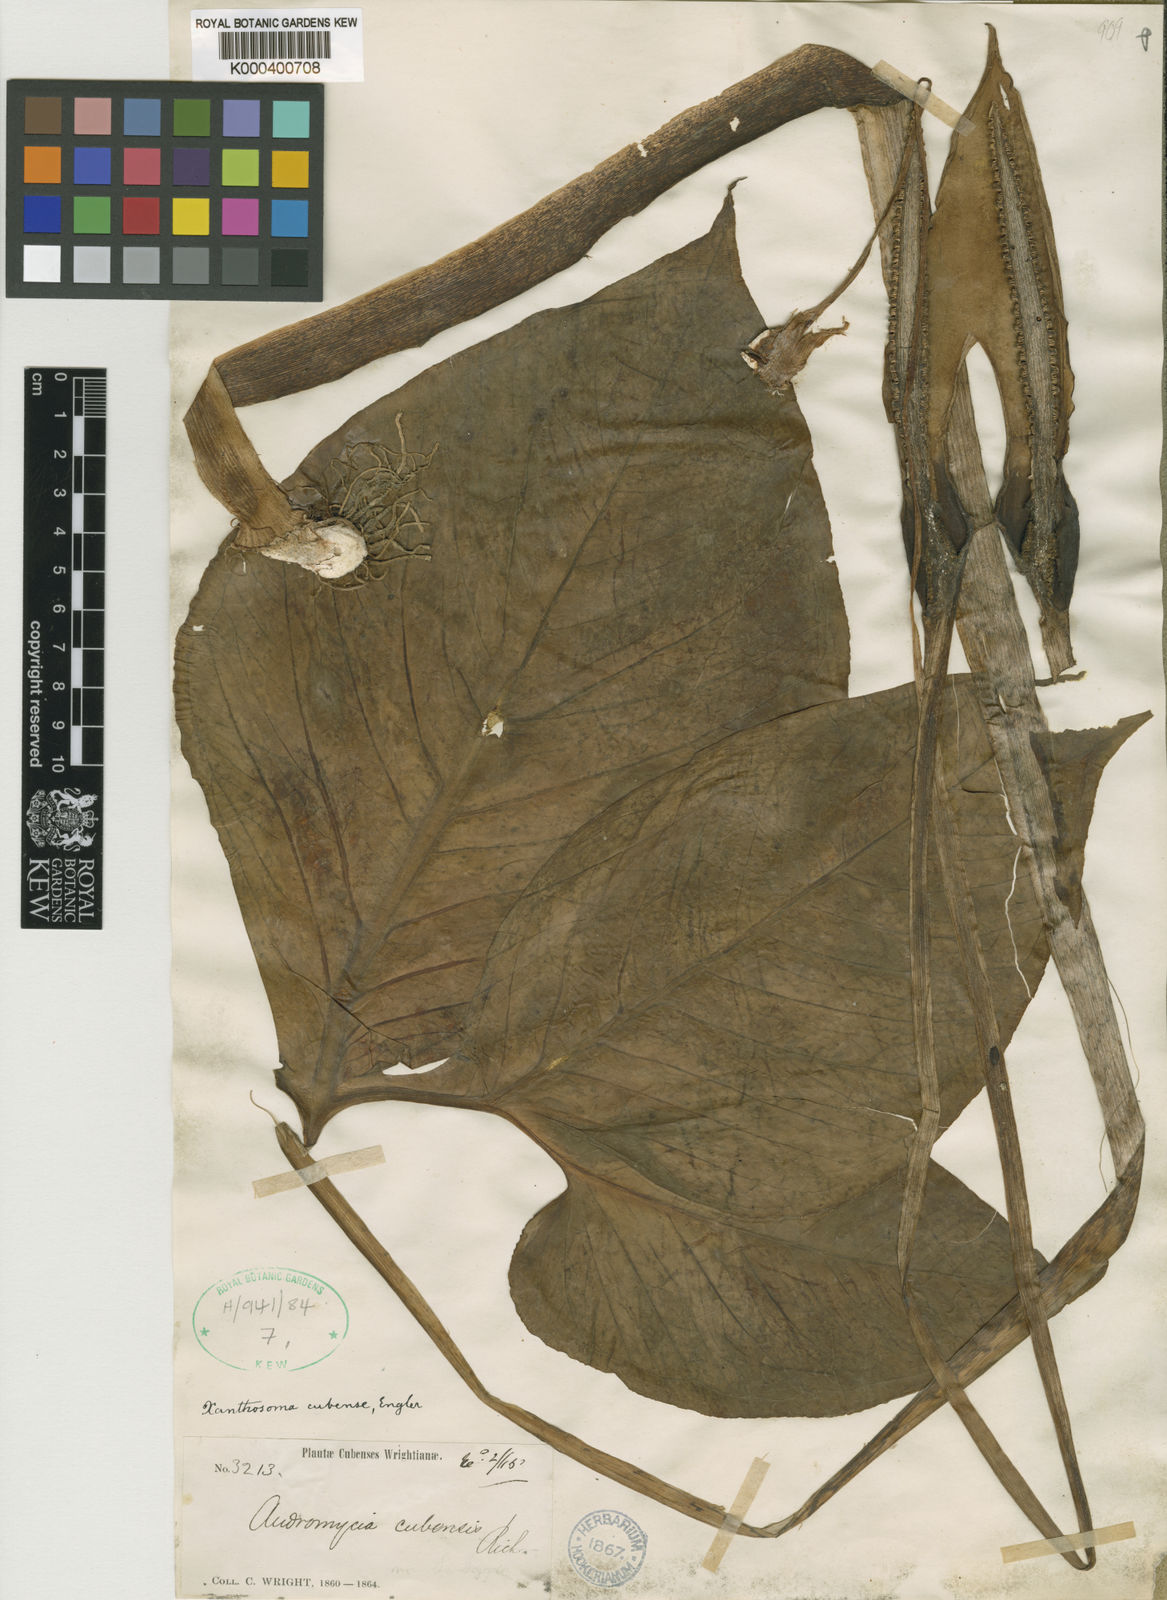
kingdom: Plantae
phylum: Tracheophyta
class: Liliopsida
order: Alismatales
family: Araceae
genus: Xanthosoma
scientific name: Xanthosoma cubense
